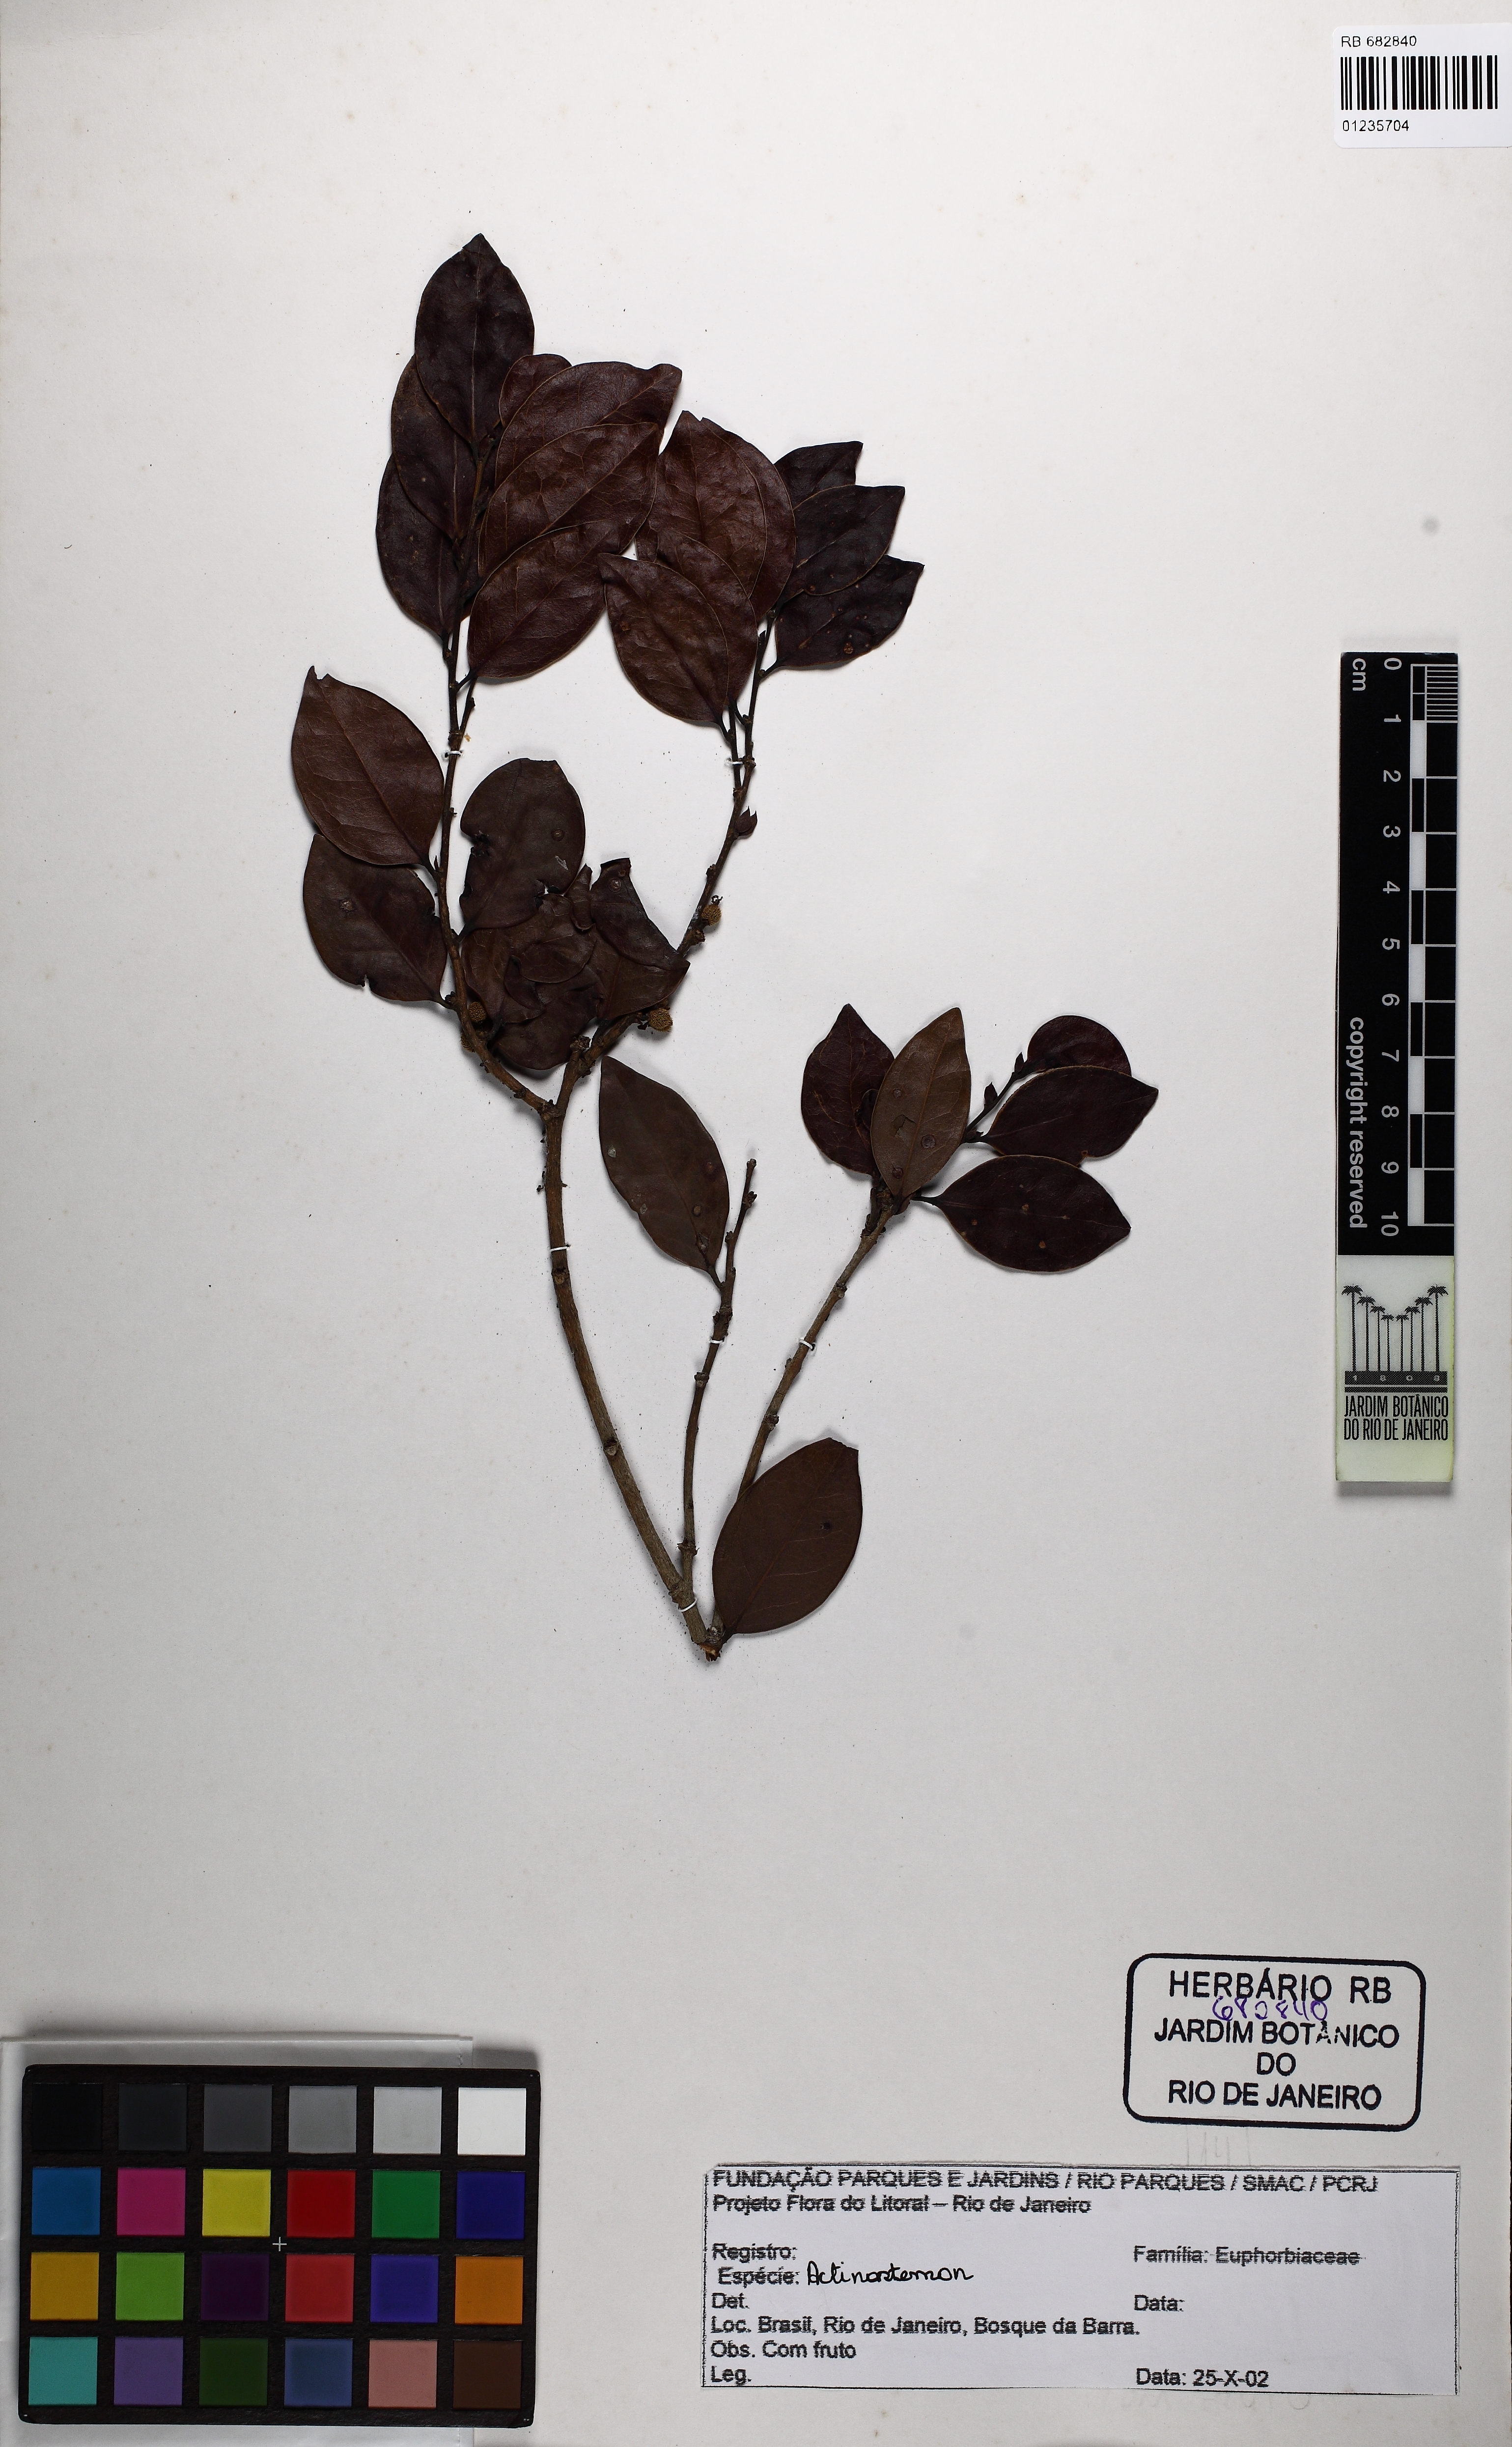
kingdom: Plantae
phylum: Tracheophyta
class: Magnoliopsida
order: Malpighiales
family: Peraceae
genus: Chaetocarpus
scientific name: Chaetocarpus myrsinites
